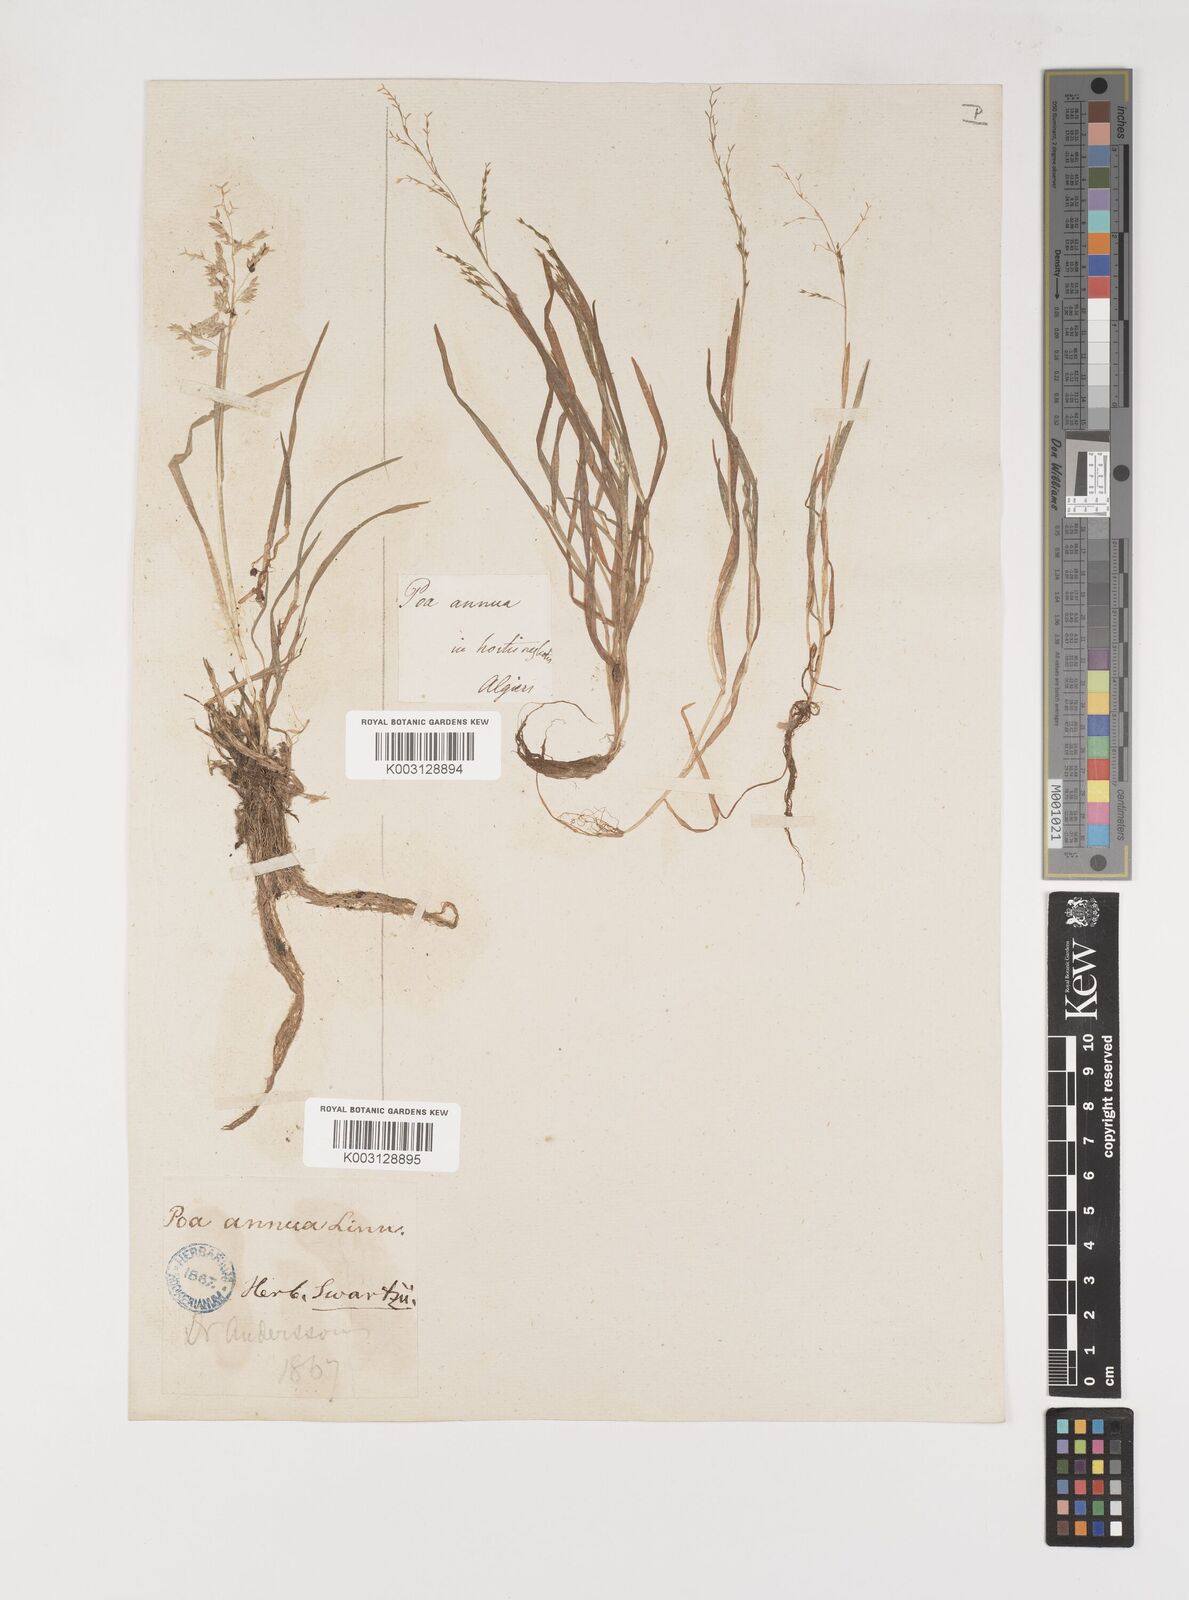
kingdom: Plantae
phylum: Tracheophyta
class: Liliopsida
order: Poales
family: Poaceae
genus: Poa
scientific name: Poa annua
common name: Annual bluegrass
